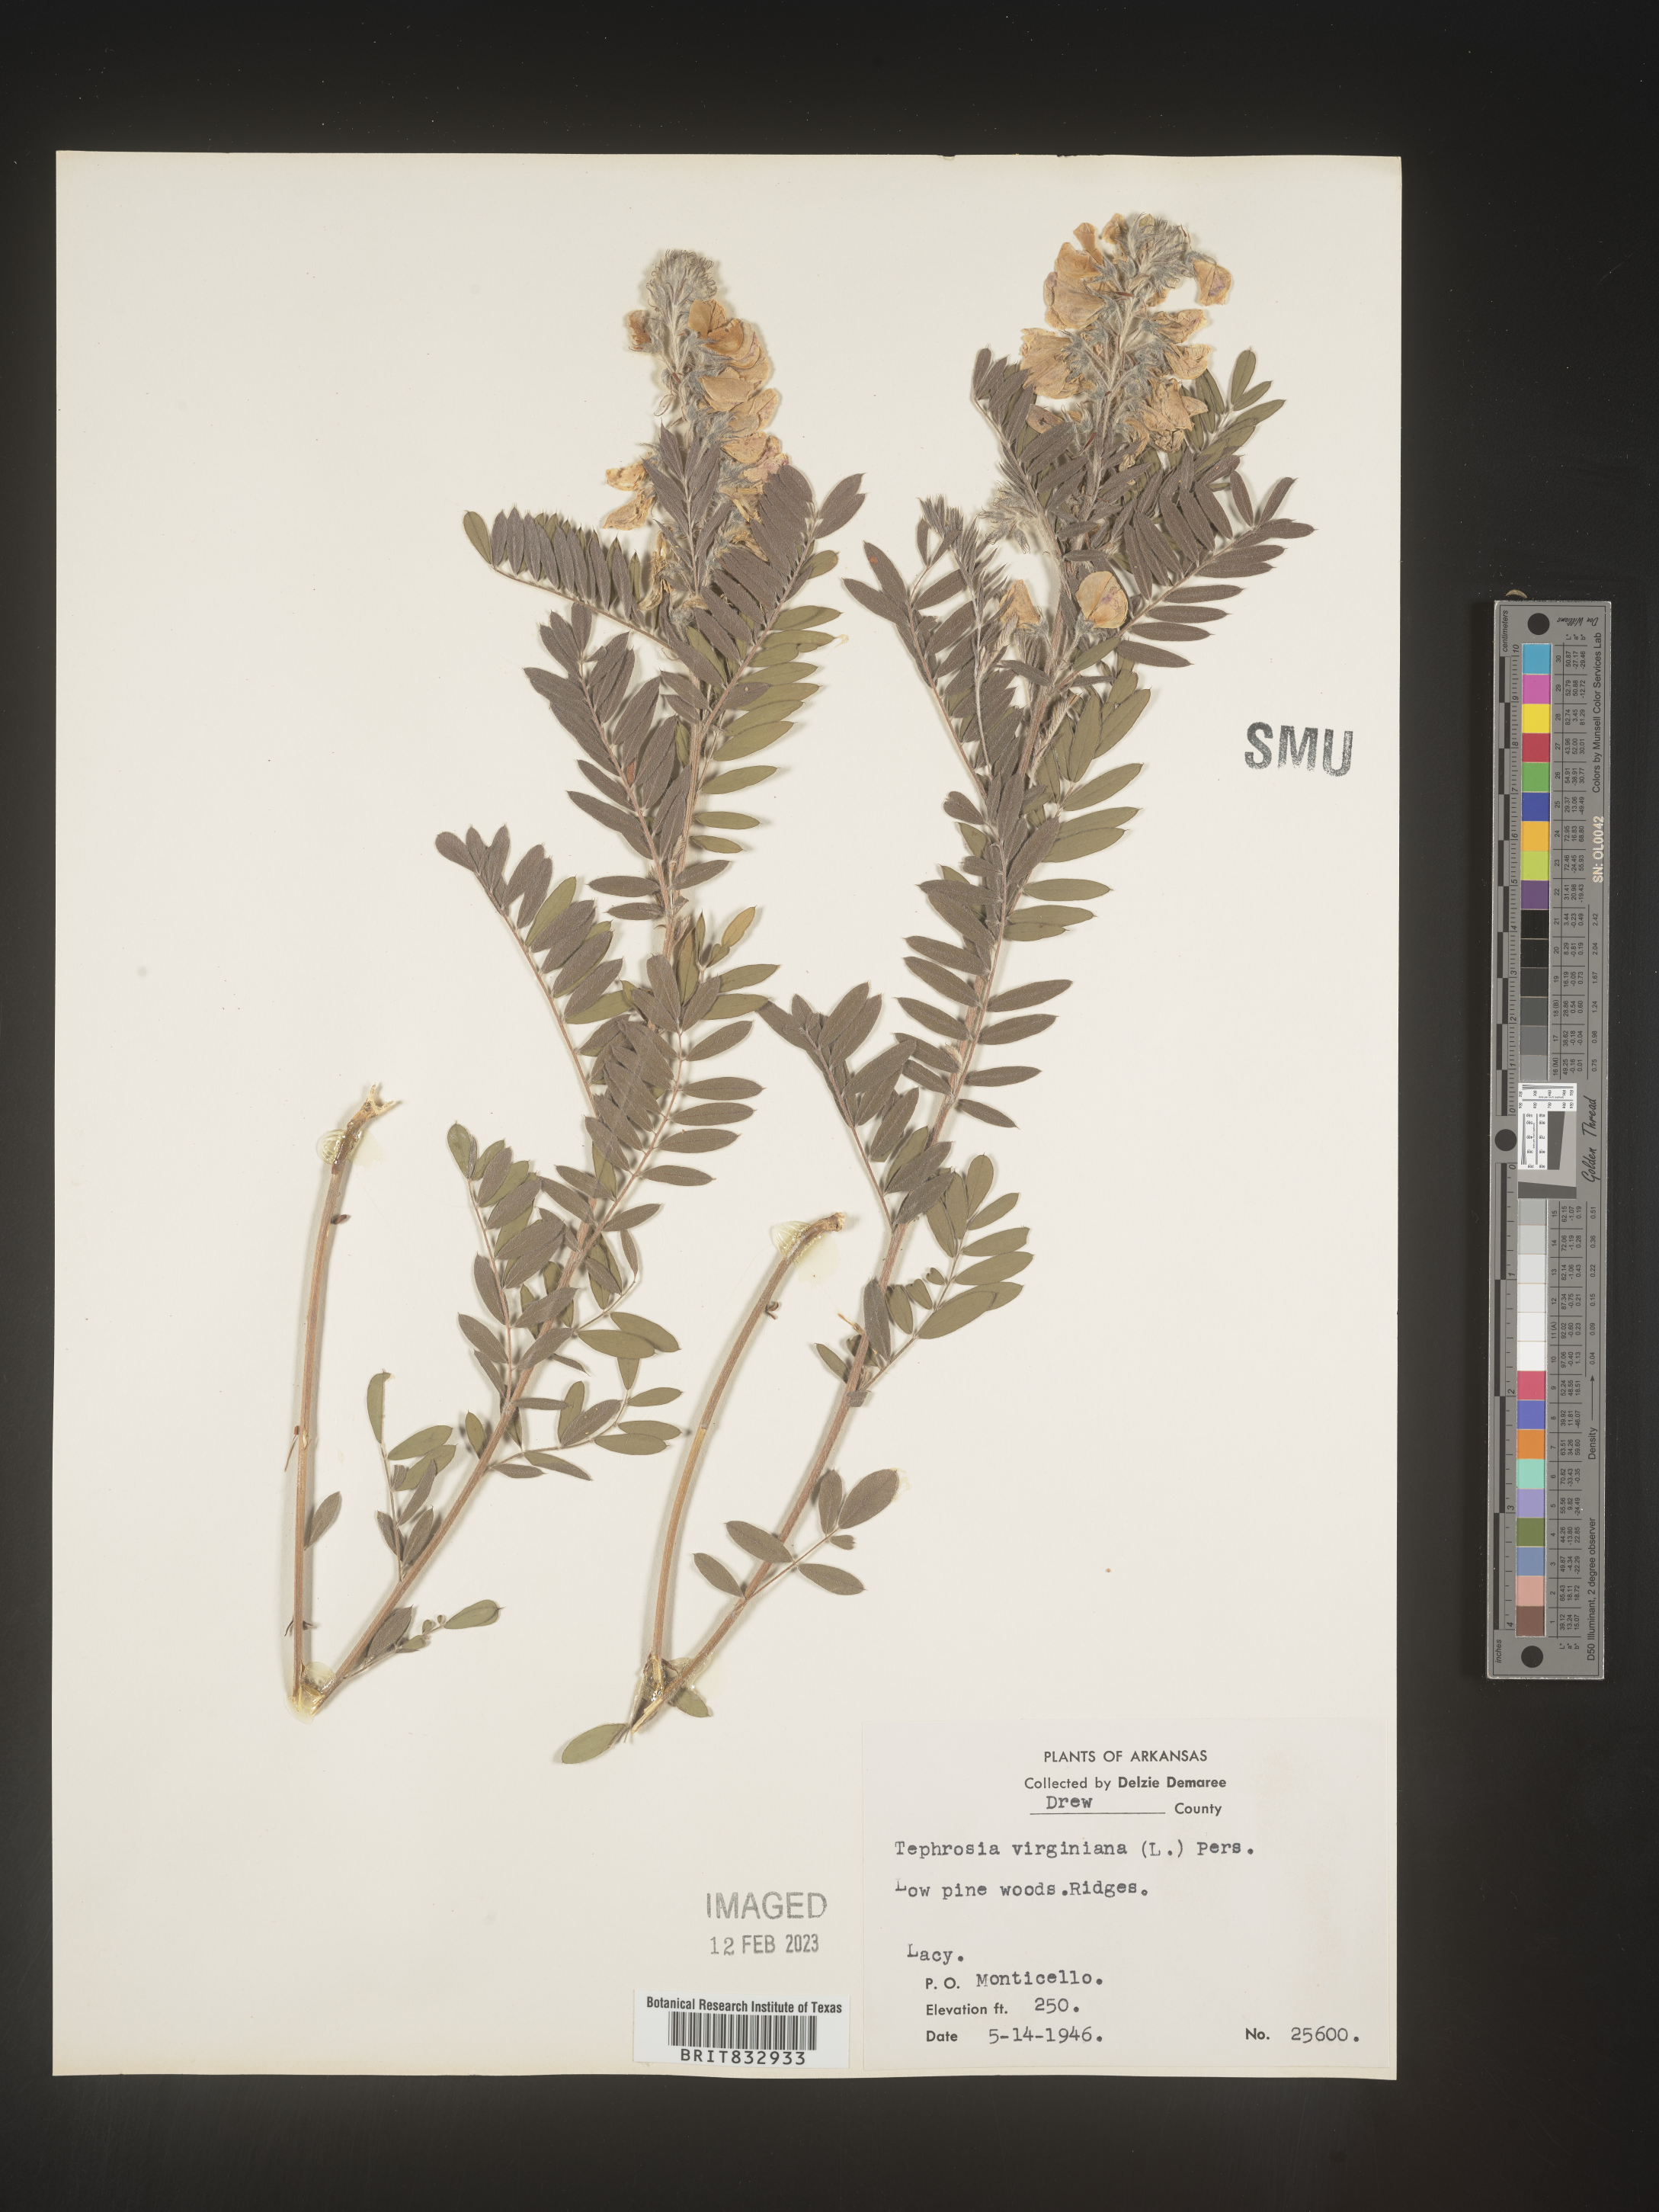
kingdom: Plantae
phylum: Tracheophyta
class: Magnoliopsida
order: Fabales
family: Fabaceae
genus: Tephrosia
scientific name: Tephrosia virginiana
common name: Rabbit-pea
